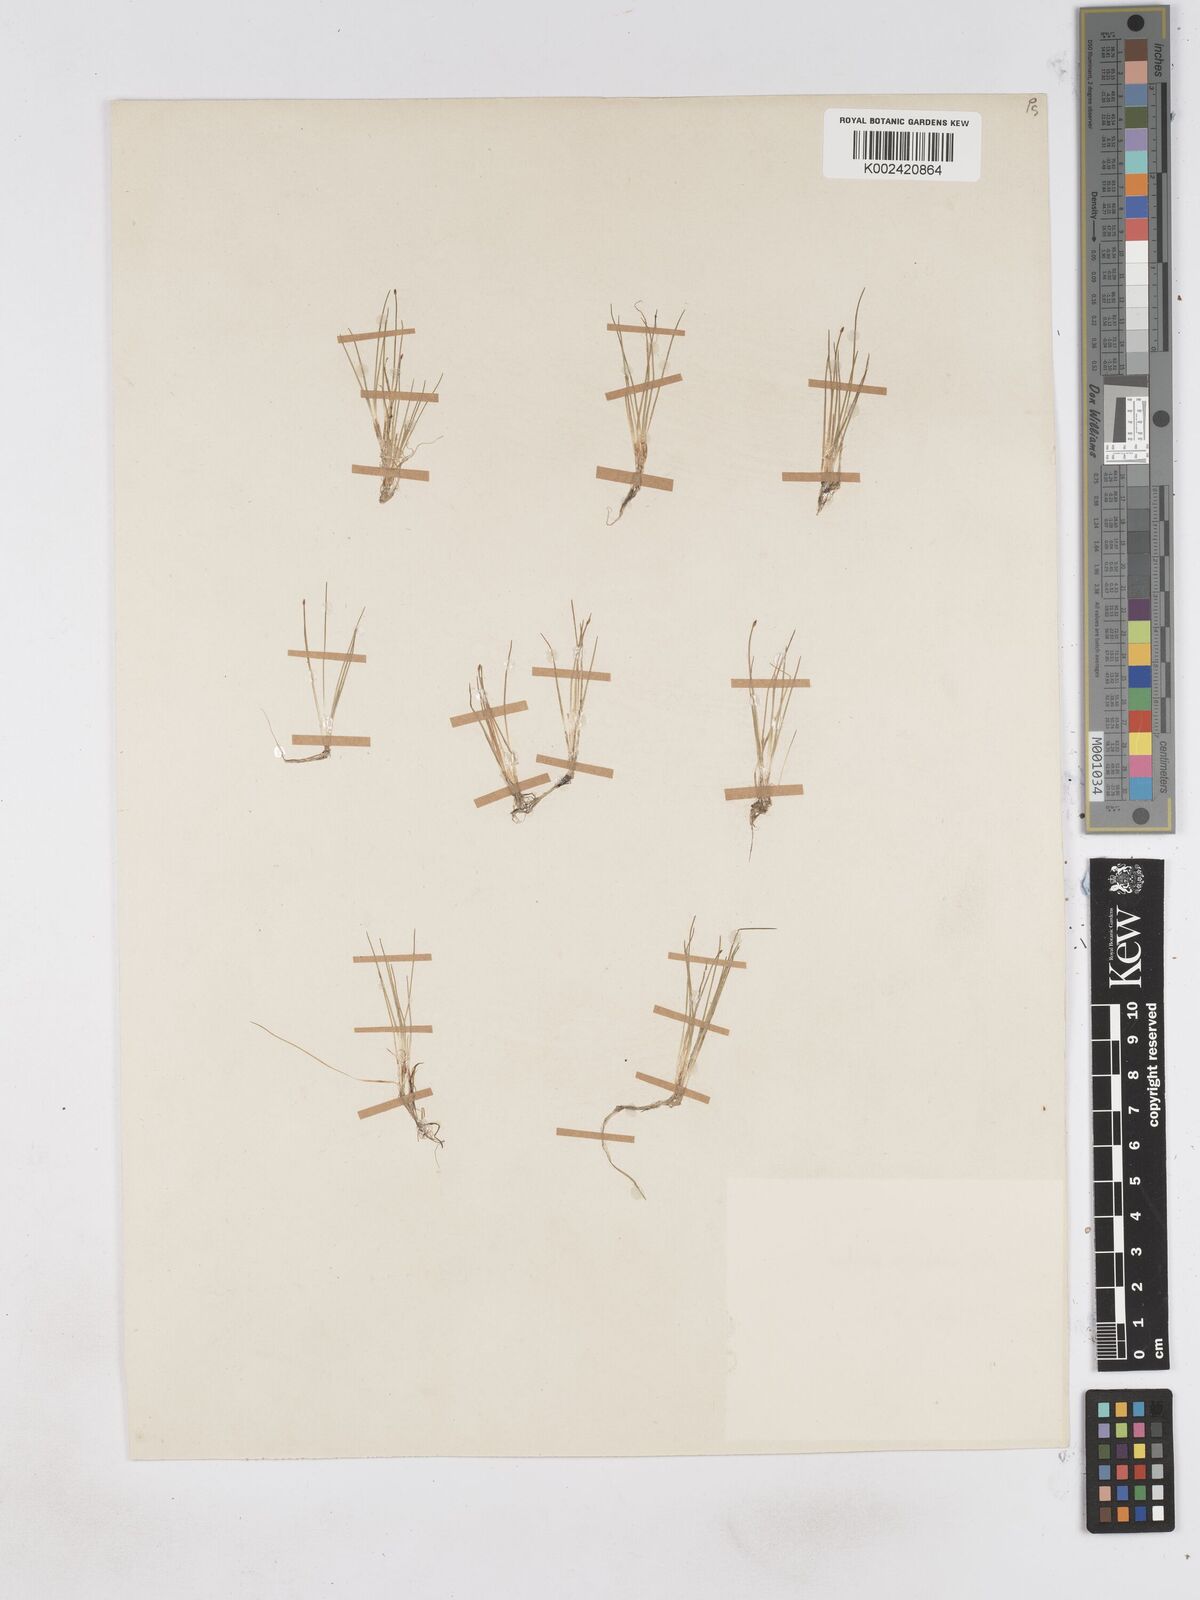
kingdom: Plantae
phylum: Tracheophyta
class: Liliopsida
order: Poales
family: Cyperaceae
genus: Eleocharis
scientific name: Eleocharis acicularis
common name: Needle spike-rush
